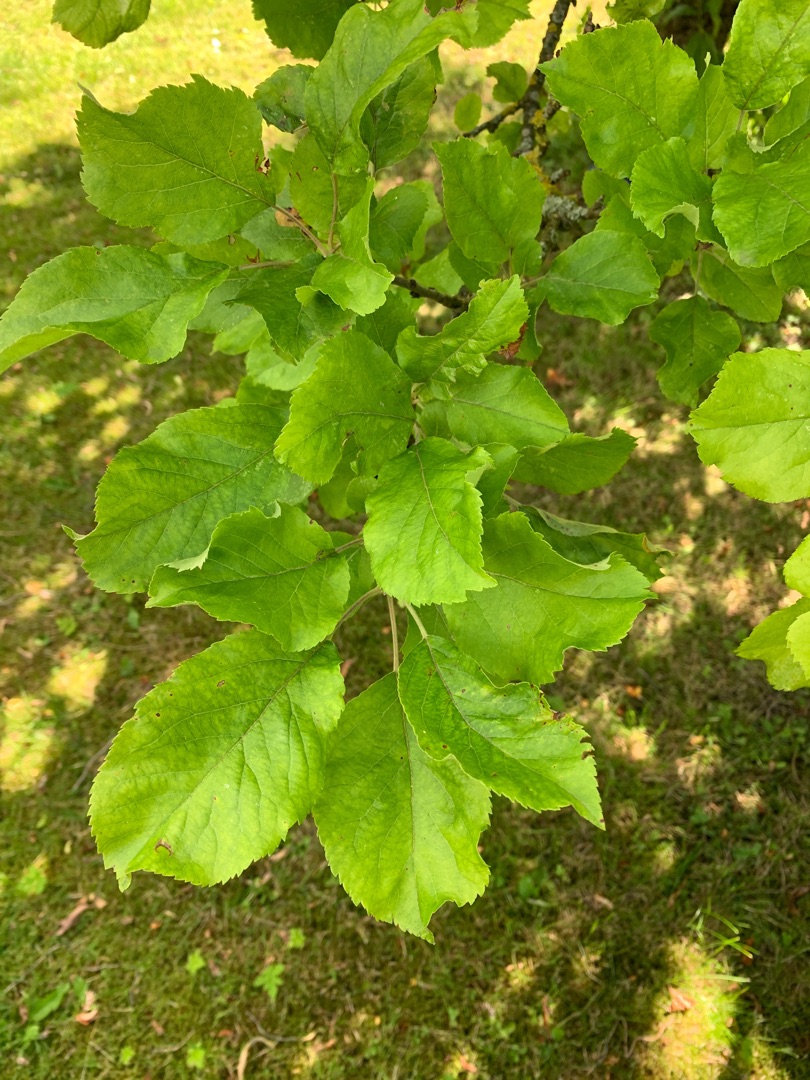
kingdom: Plantae
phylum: Tracheophyta
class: Magnoliopsida
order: Rosales
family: Rosaceae
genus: Malus
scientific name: Malus domestica
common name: Sød-æble
